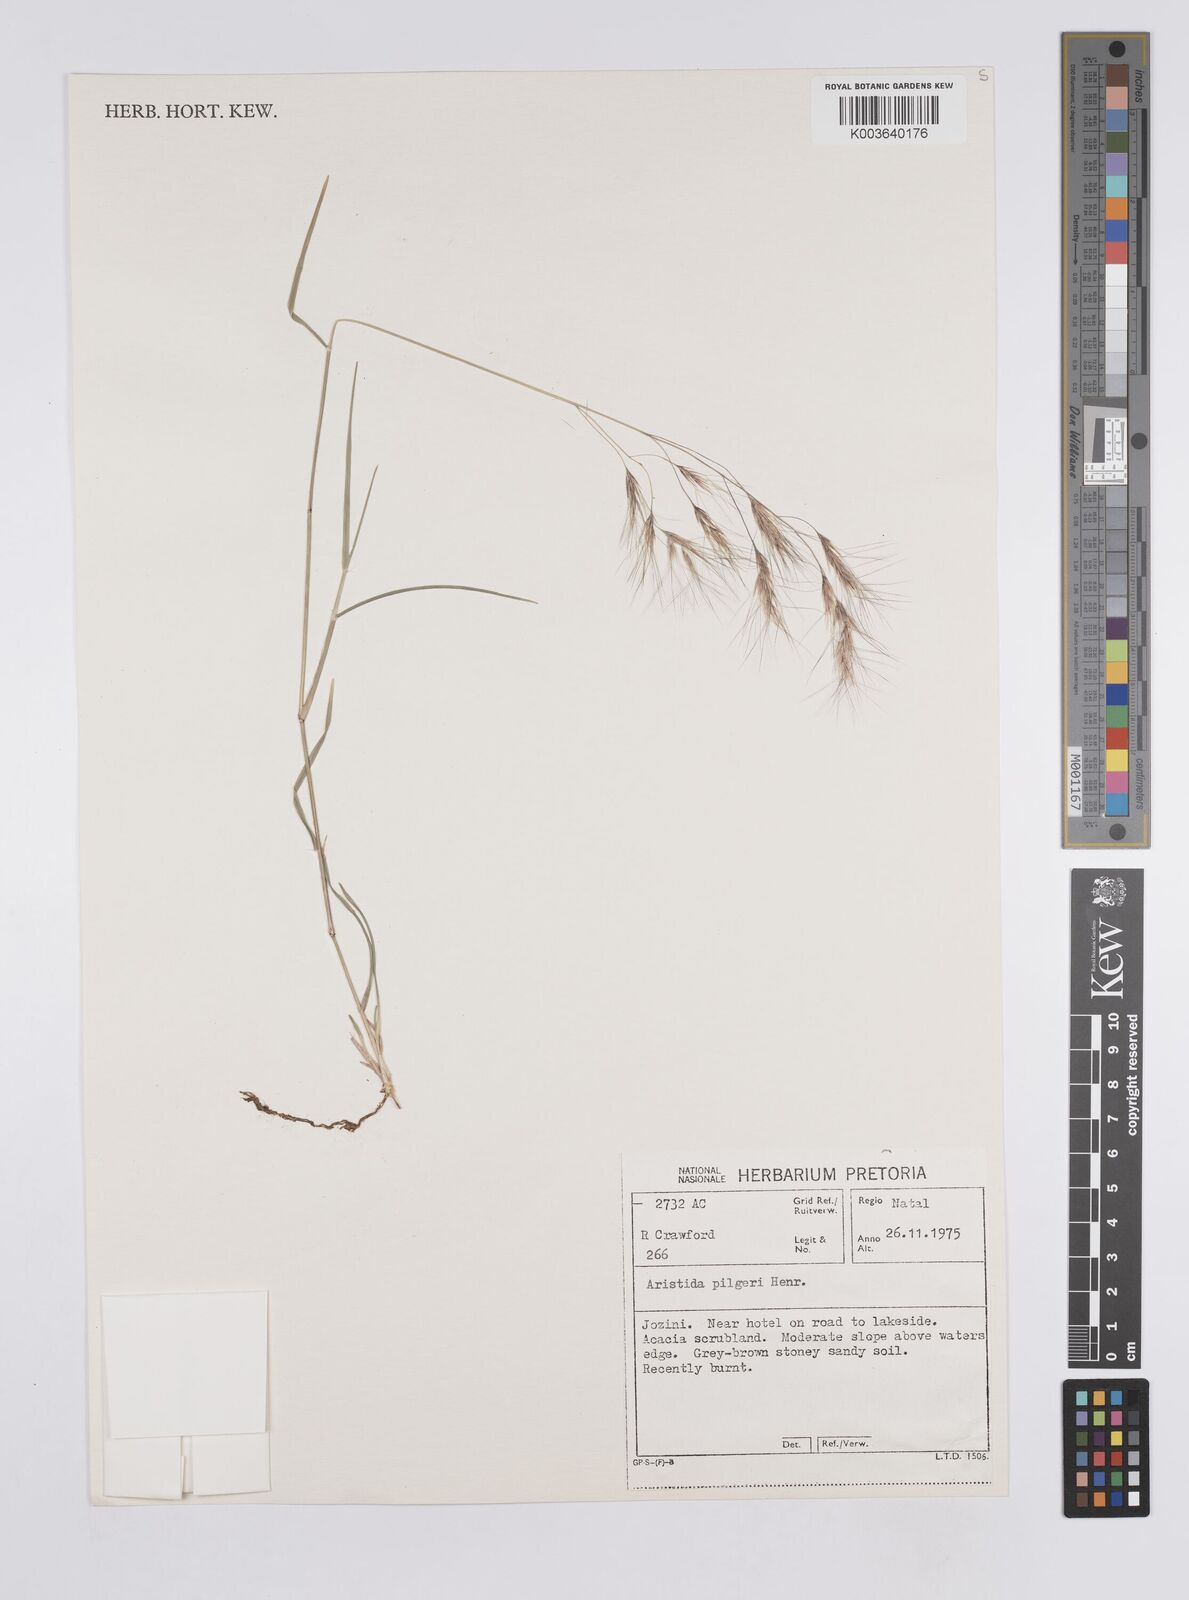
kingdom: Plantae
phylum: Tracheophyta
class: Liliopsida
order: Poales
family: Poaceae
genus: Aristida
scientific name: Aristida pilgeri
